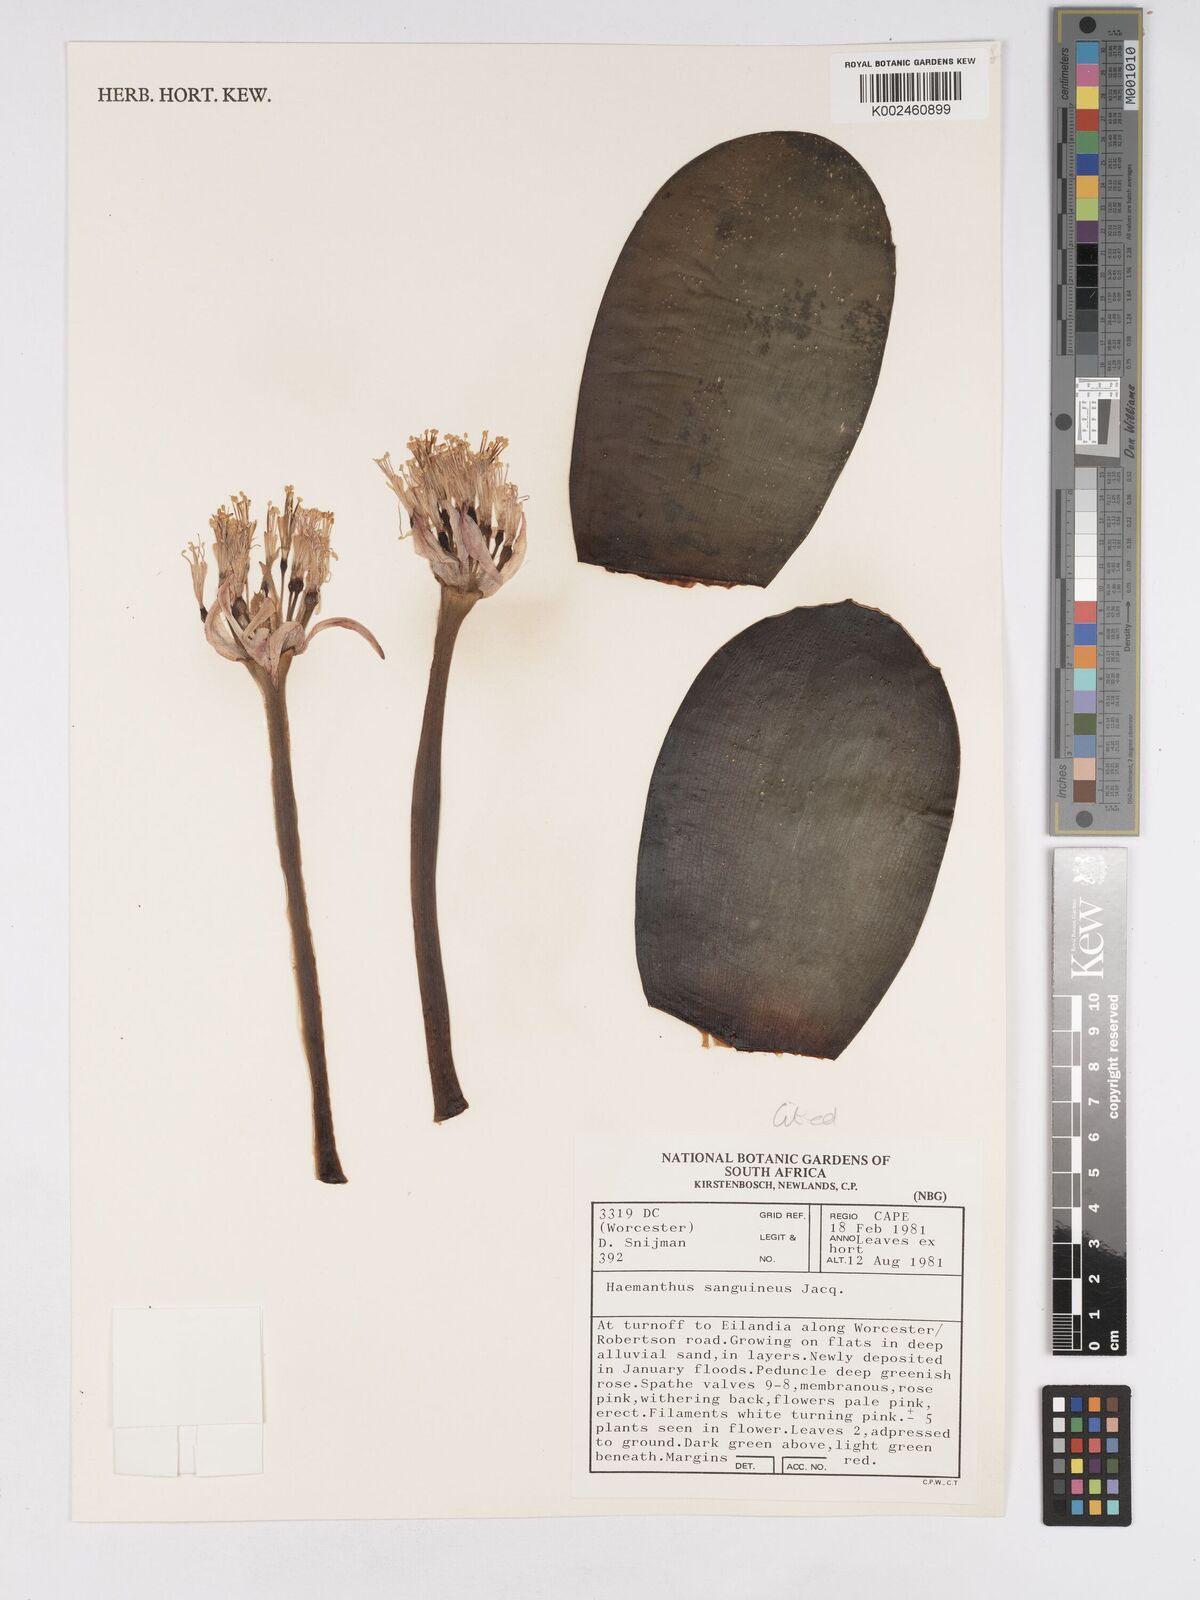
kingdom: Plantae
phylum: Tracheophyta
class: Liliopsida
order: Asparagales
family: Amaryllidaceae
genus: Haemanthus
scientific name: Haemanthus sanguineus
